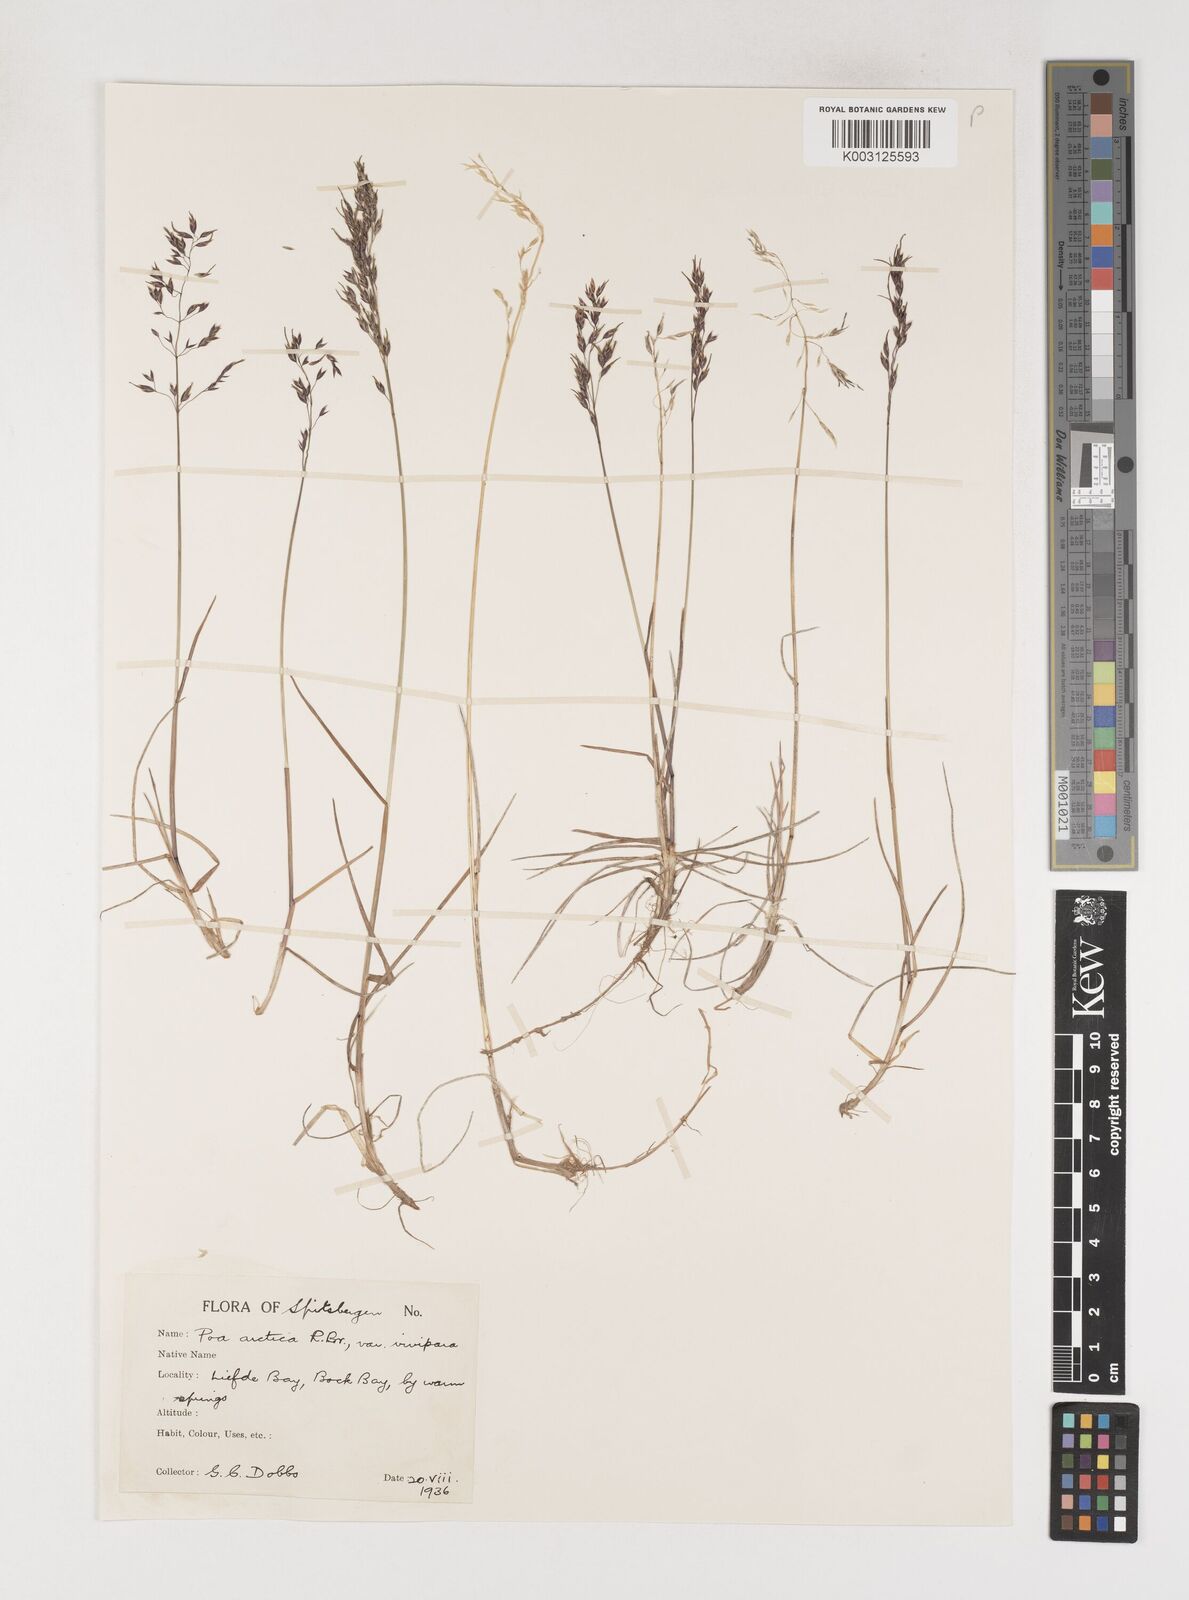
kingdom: Plantae
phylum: Tracheophyta
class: Liliopsida
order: Poales
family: Poaceae
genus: Poa
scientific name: Poa arctica
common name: Arctic bluegrass
